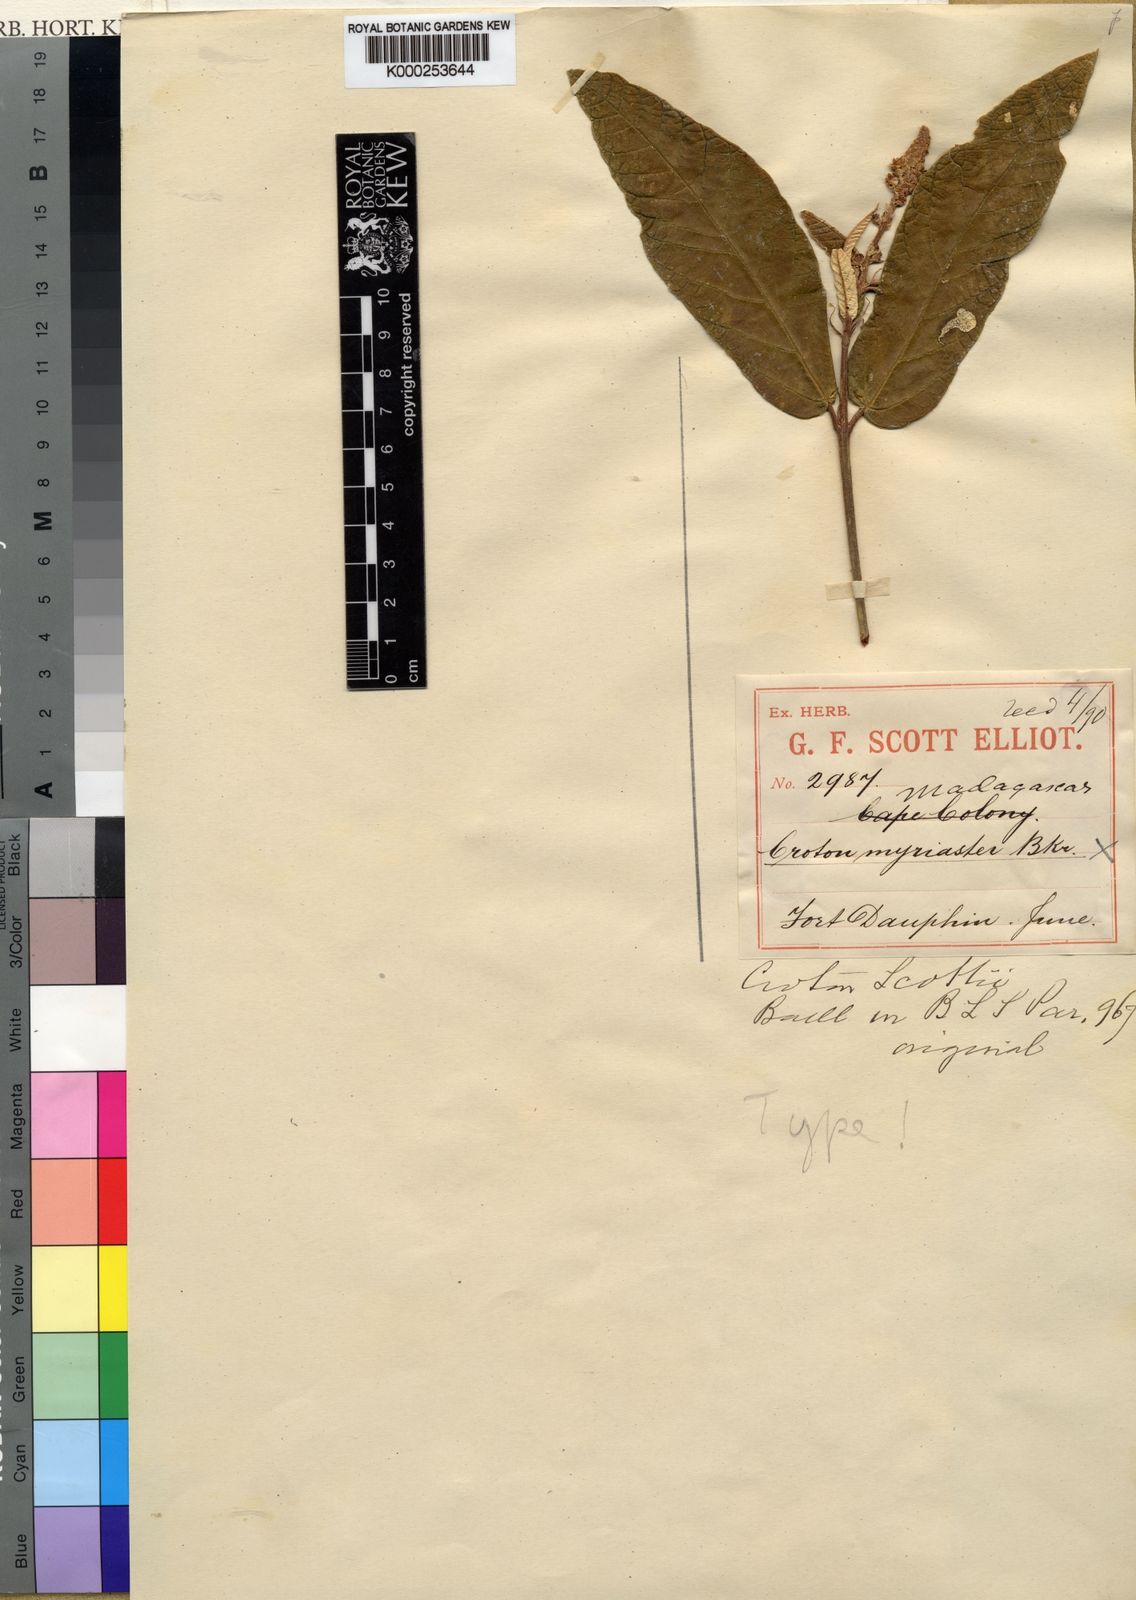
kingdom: Plantae
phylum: Tracheophyta
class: Magnoliopsida
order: Malpighiales
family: Euphorbiaceae
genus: Croton
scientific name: Croton farinosus
